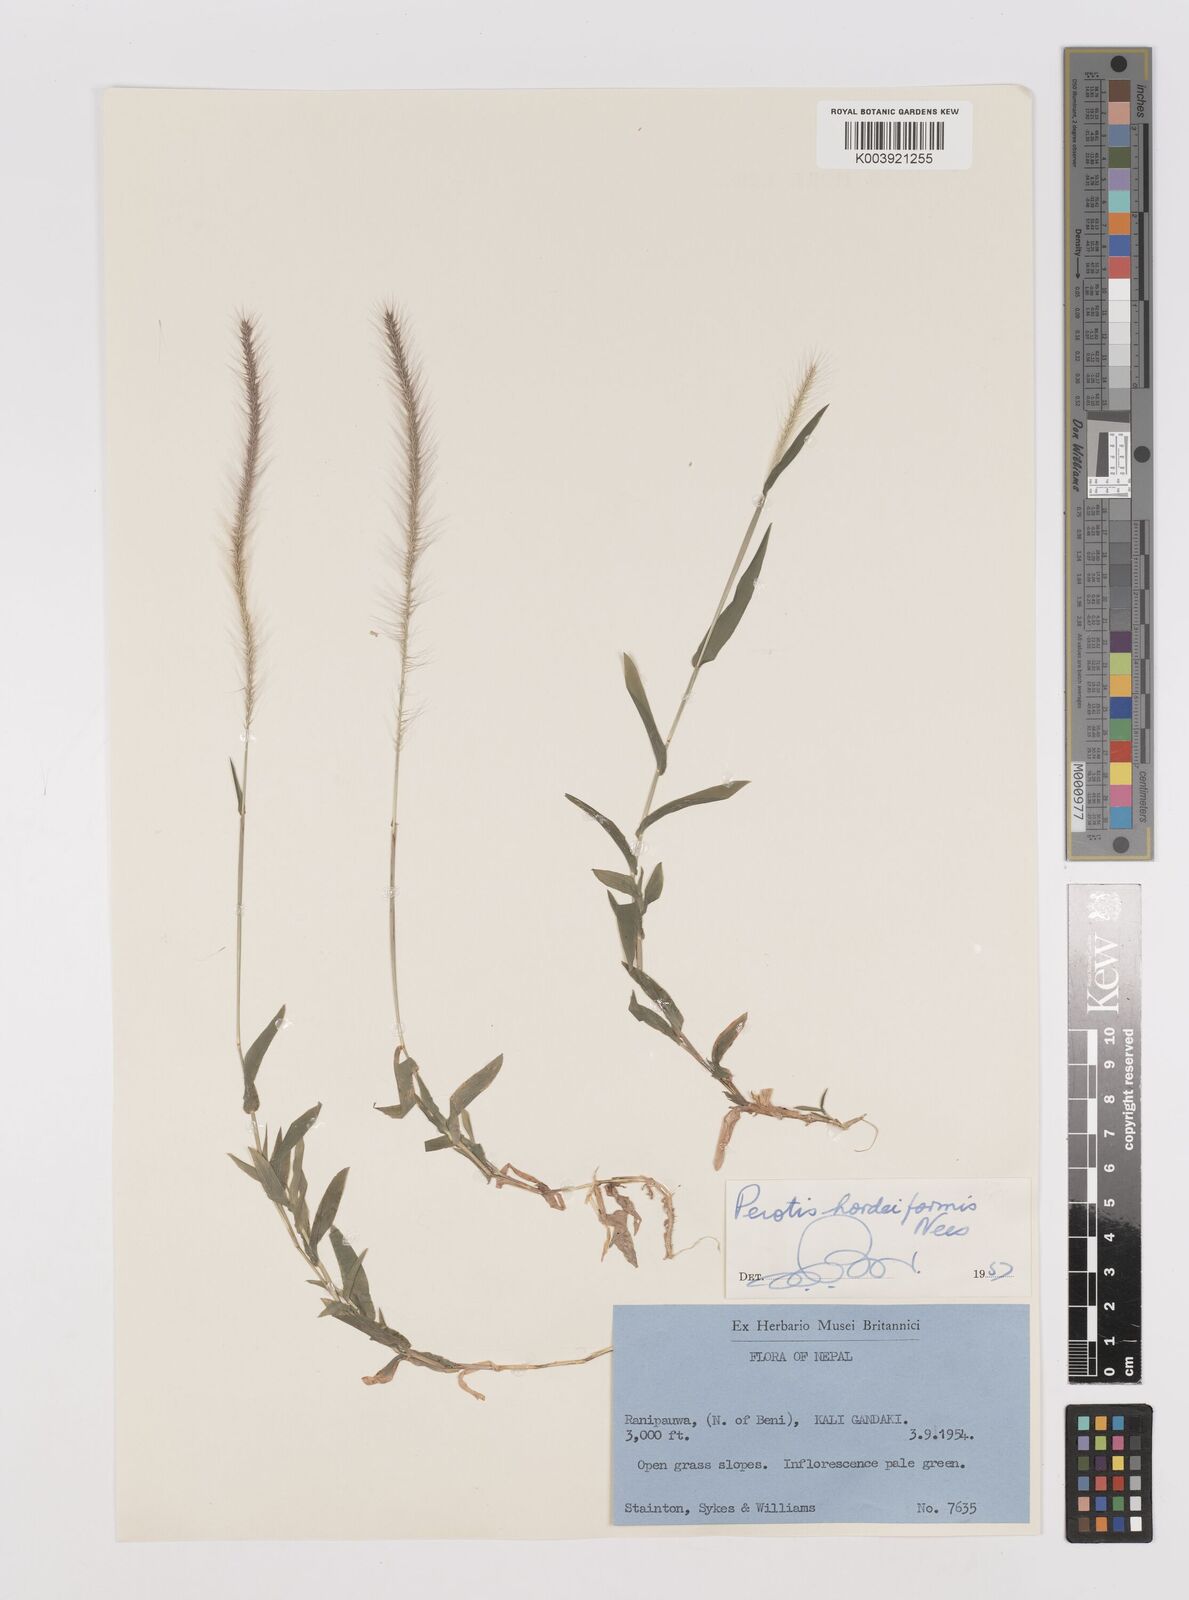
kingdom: Plantae
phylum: Tracheophyta
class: Liliopsida
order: Poales
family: Poaceae
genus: Perotis
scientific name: Perotis hordeiformis
